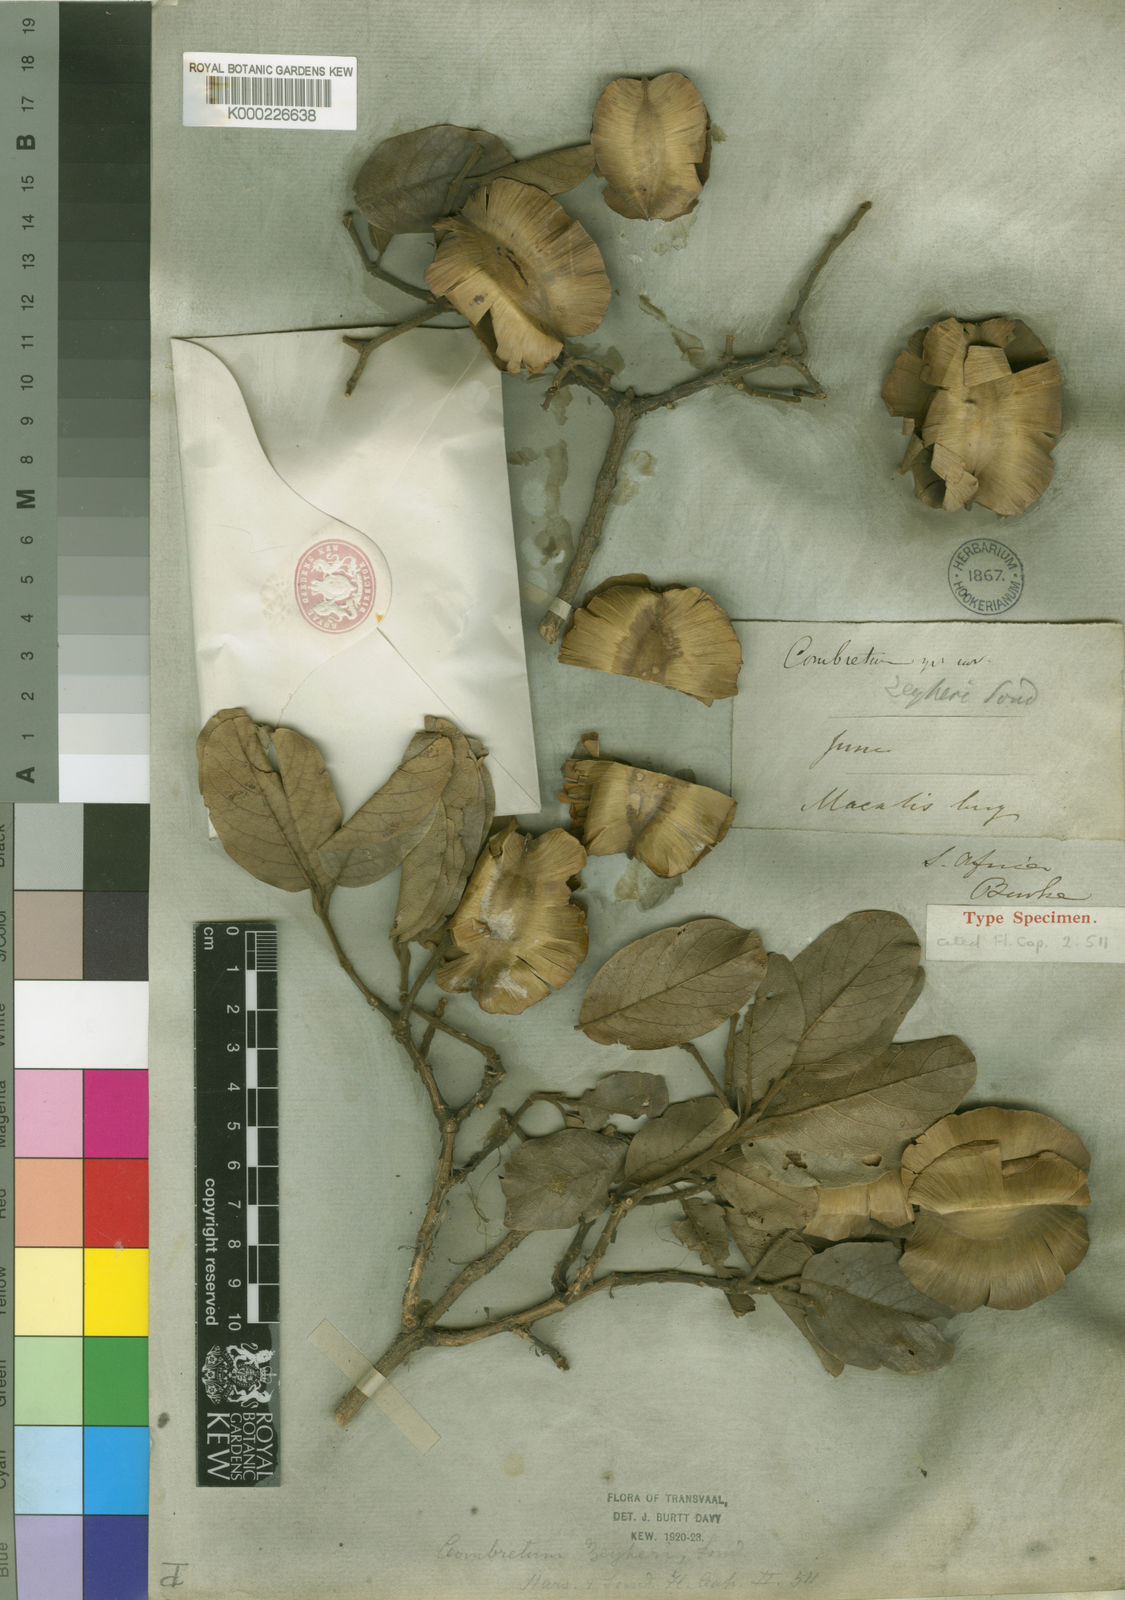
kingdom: Plantae
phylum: Tracheophyta
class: Magnoliopsida
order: Myrtales
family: Combretaceae
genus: Combretum
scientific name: Combretum zeyheri
